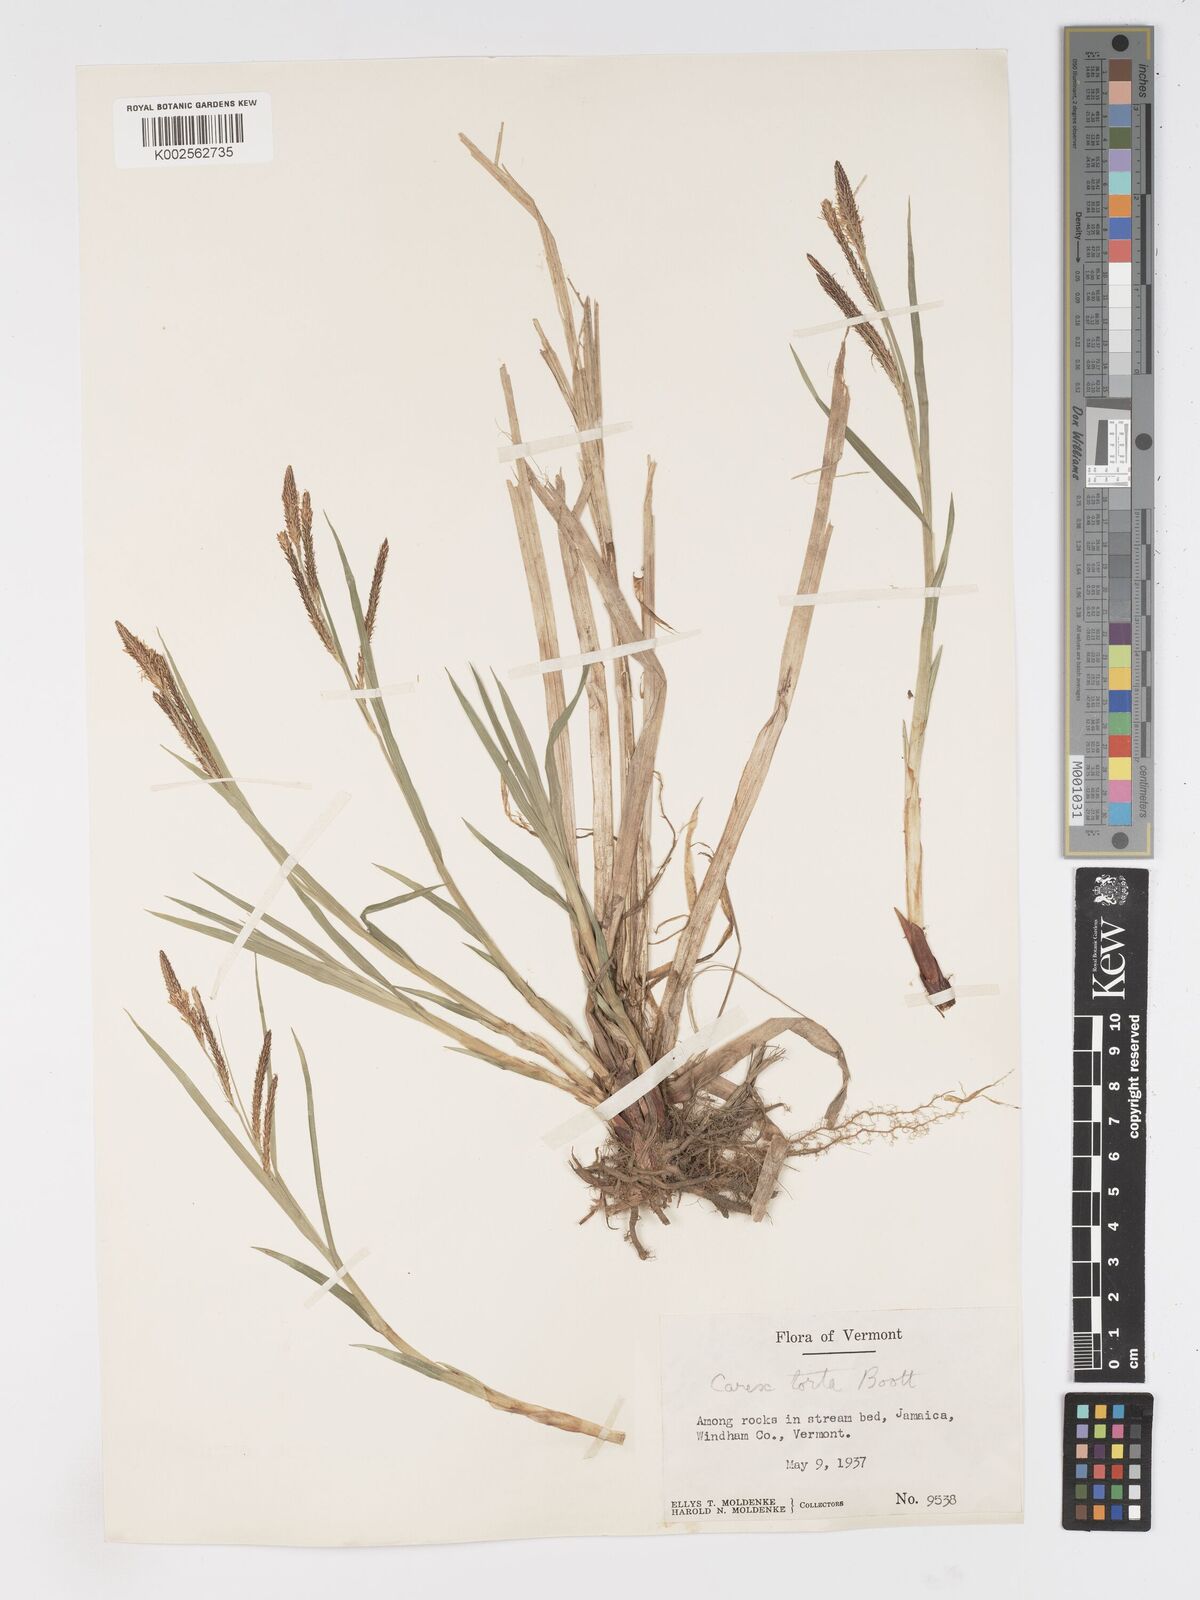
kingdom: Plantae
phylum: Tracheophyta
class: Liliopsida
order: Poales
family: Cyperaceae
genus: Carex
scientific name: Carex torta
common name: Twisted sedge
